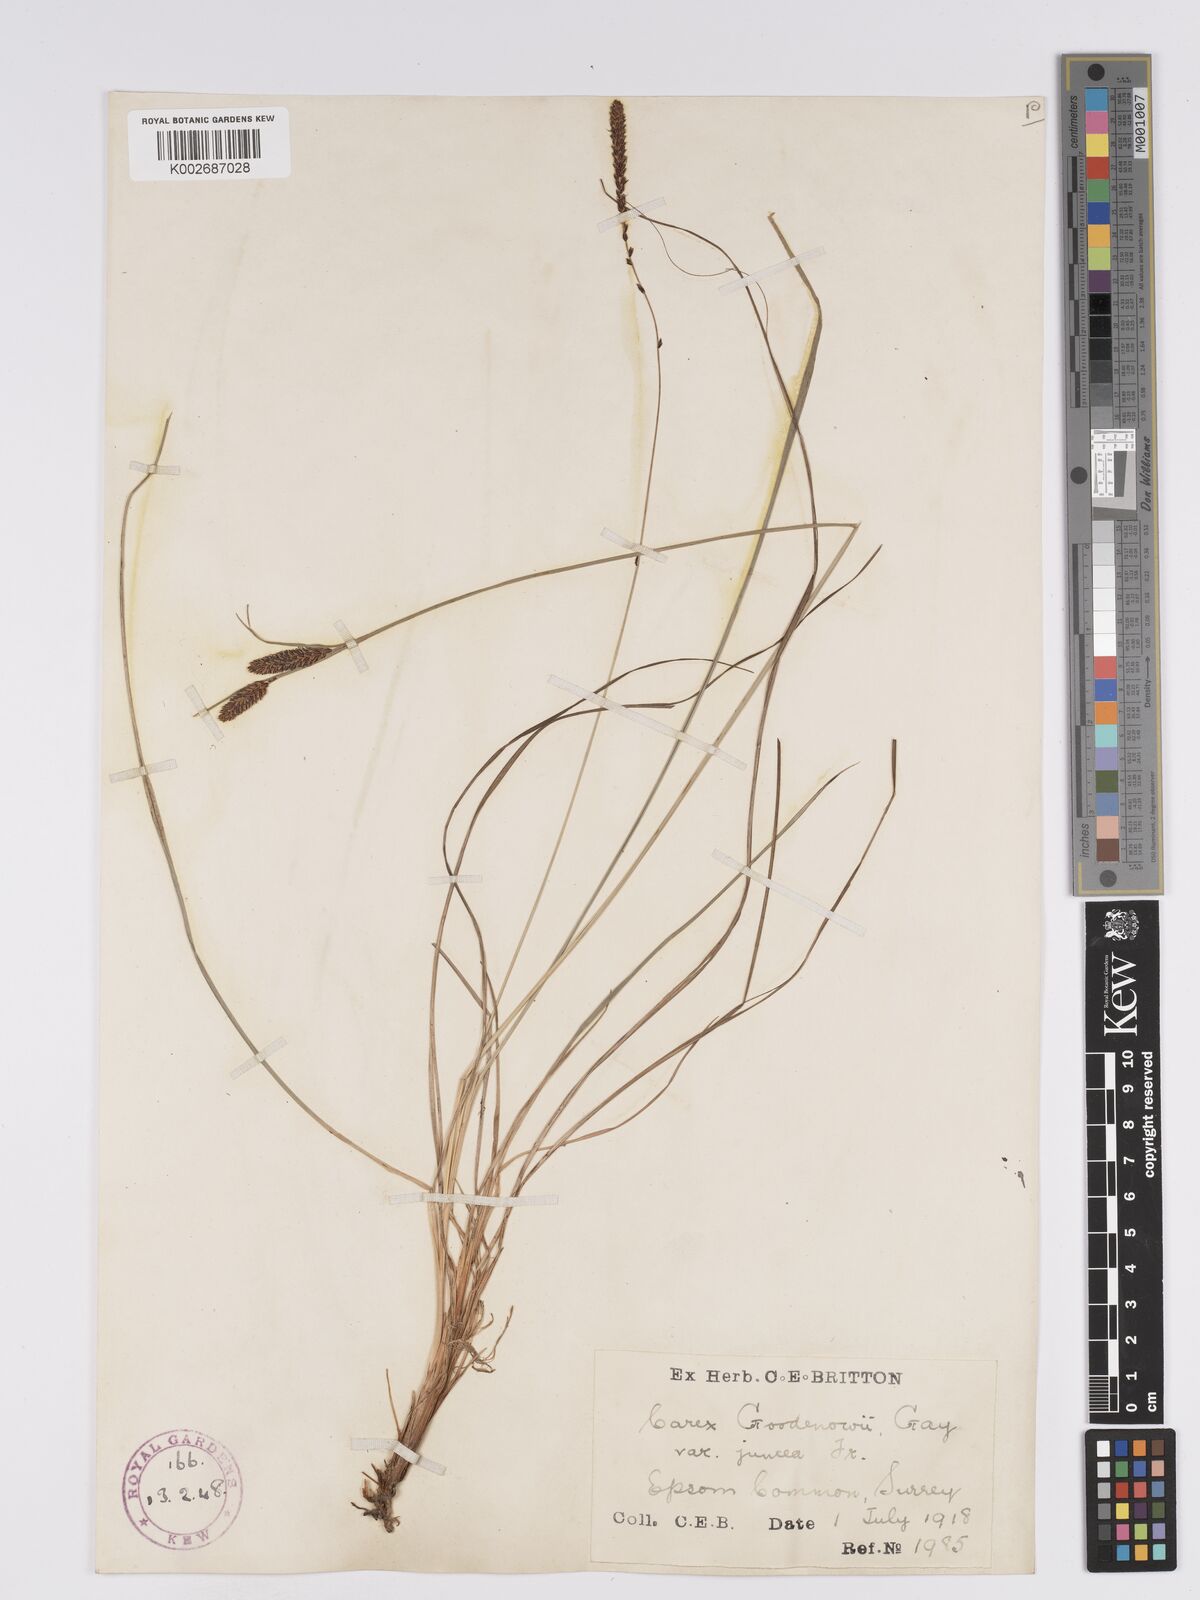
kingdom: Plantae
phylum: Tracheophyta
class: Liliopsida
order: Poales
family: Cyperaceae
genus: Carex
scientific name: Carex nigra
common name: Common sedge
